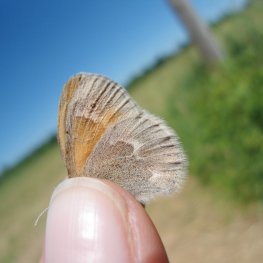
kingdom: Animalia
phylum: Arthropoda
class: Insecta
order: Lepidoptera
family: Nymphalidae
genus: Coenonympha
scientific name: Coenonympha tullia
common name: Large Heath
